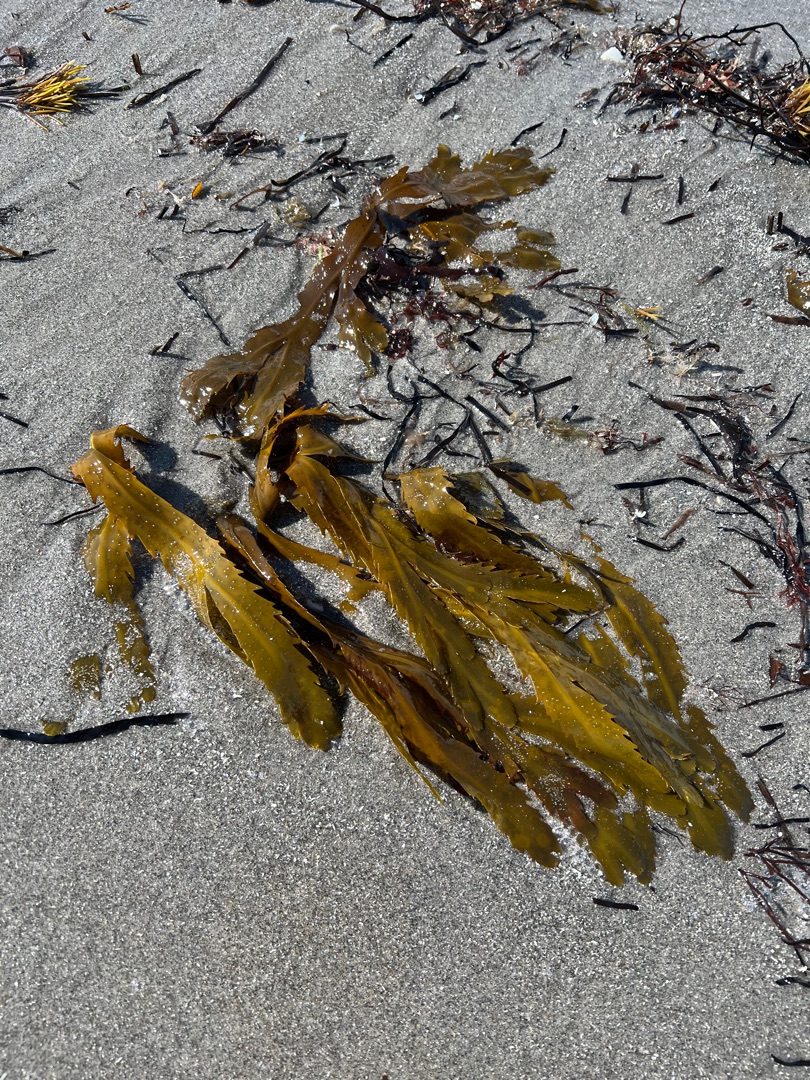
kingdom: Chromista
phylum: Ochrophyta
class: Phaeophyceae
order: Fucales
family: Fucaceae
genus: Fucus
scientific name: Fucus serratus
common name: Savtang
